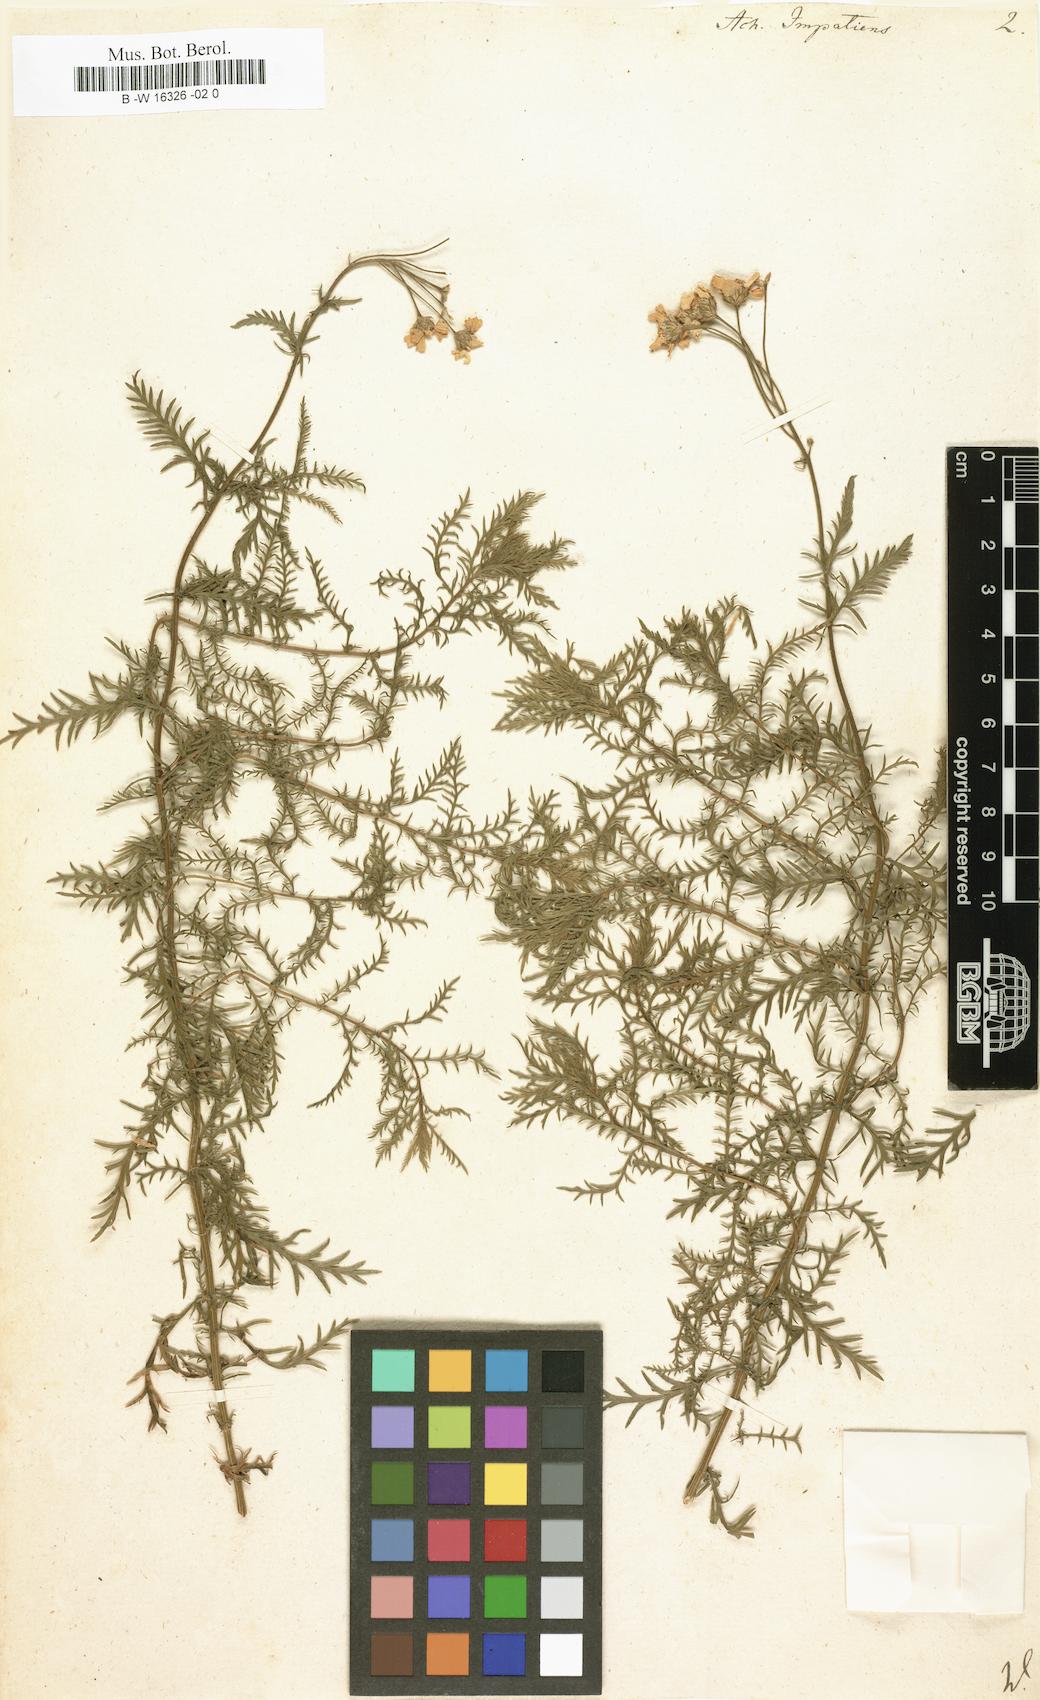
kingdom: Plantae
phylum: Tracheophyta
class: Magnoliopsida
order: Asterales
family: Asteraceae
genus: Achillea
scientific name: Achillea impatiens
